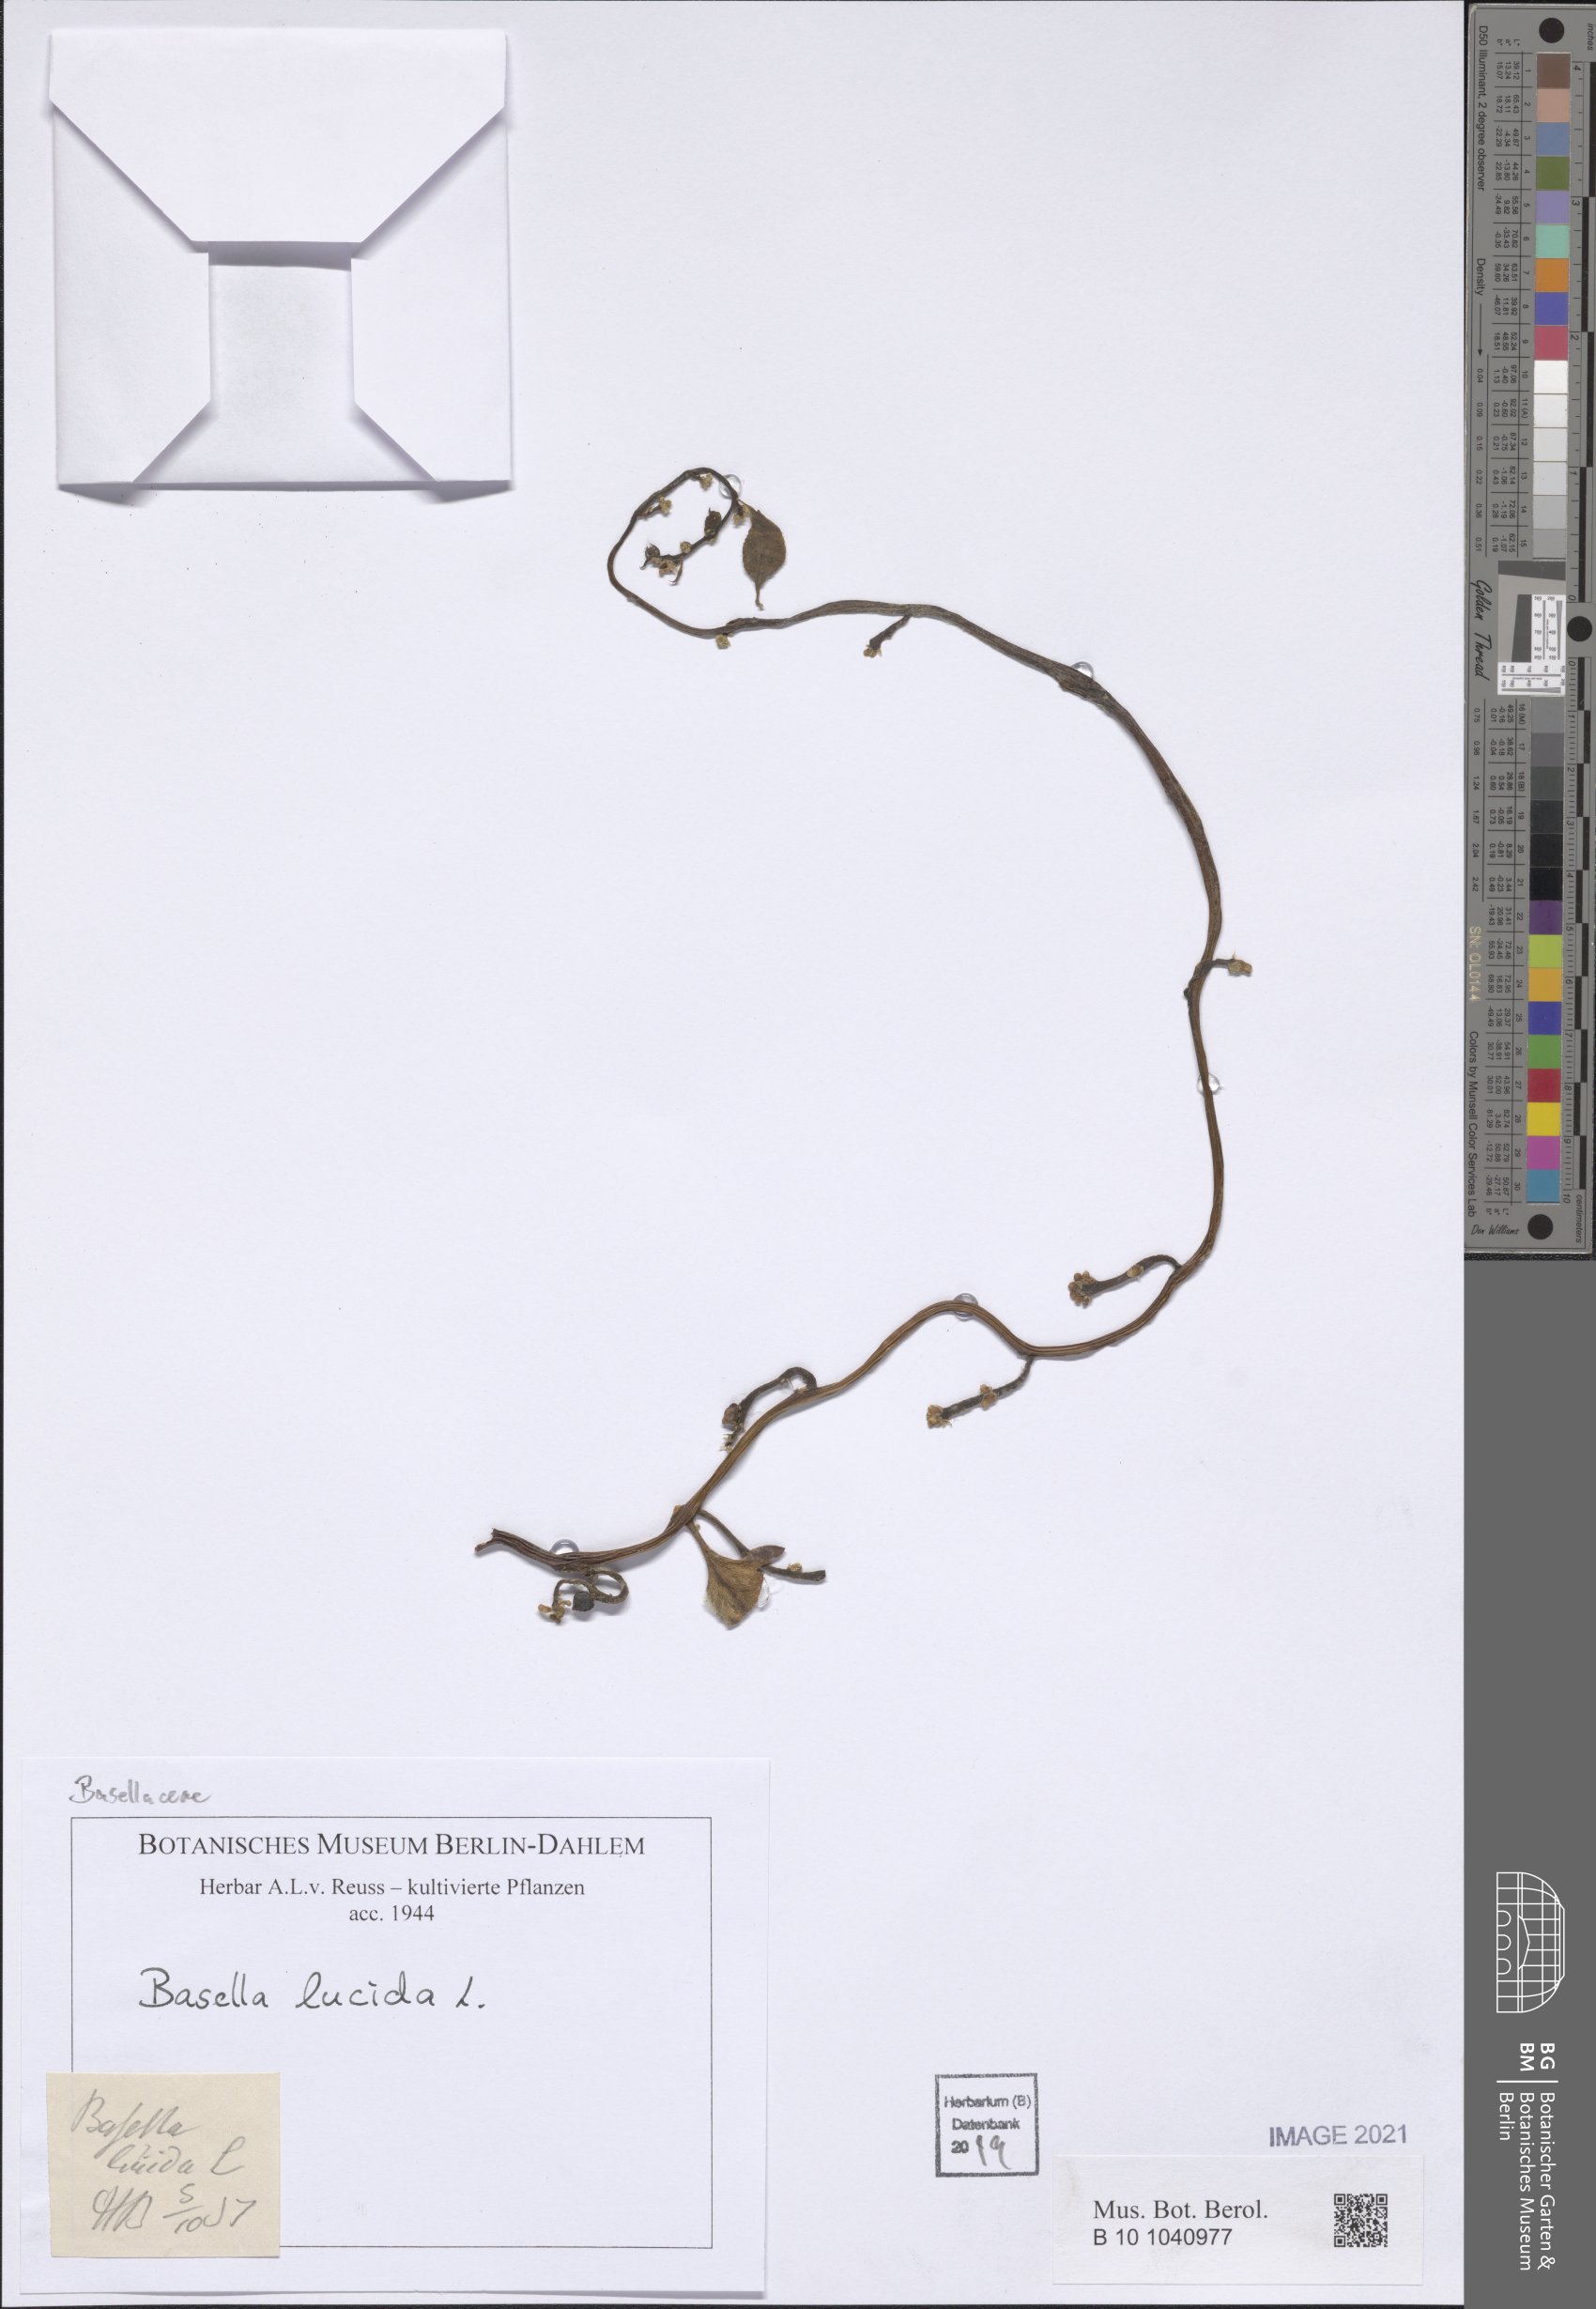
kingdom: Plantae
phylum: Tracheophyta
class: Magnoliopsida
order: Caryophyllales
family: Basellaceae
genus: Basella
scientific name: Basella alba
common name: Indian spinach
